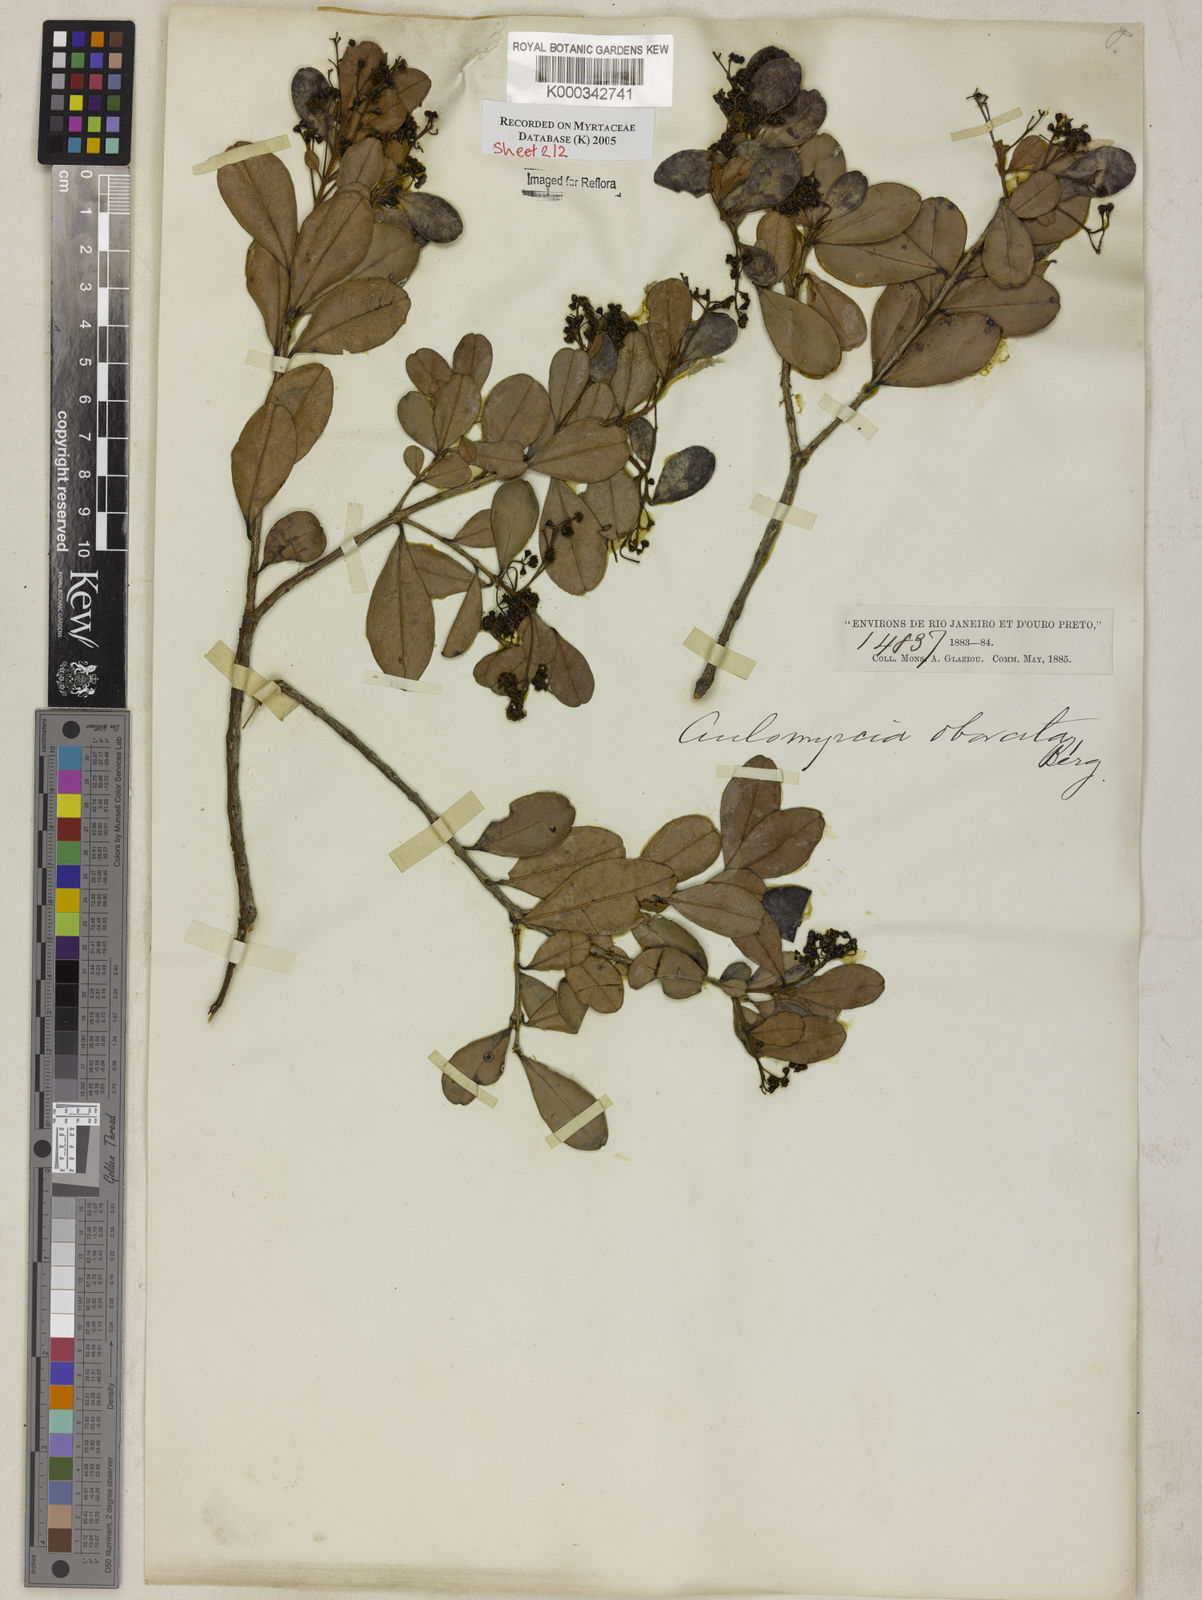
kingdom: Plantae
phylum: Tracheophyta
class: Magnoliopsida
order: Myrtales
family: Myrtaceae
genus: Myrcia
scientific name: Myrcia guianensis
